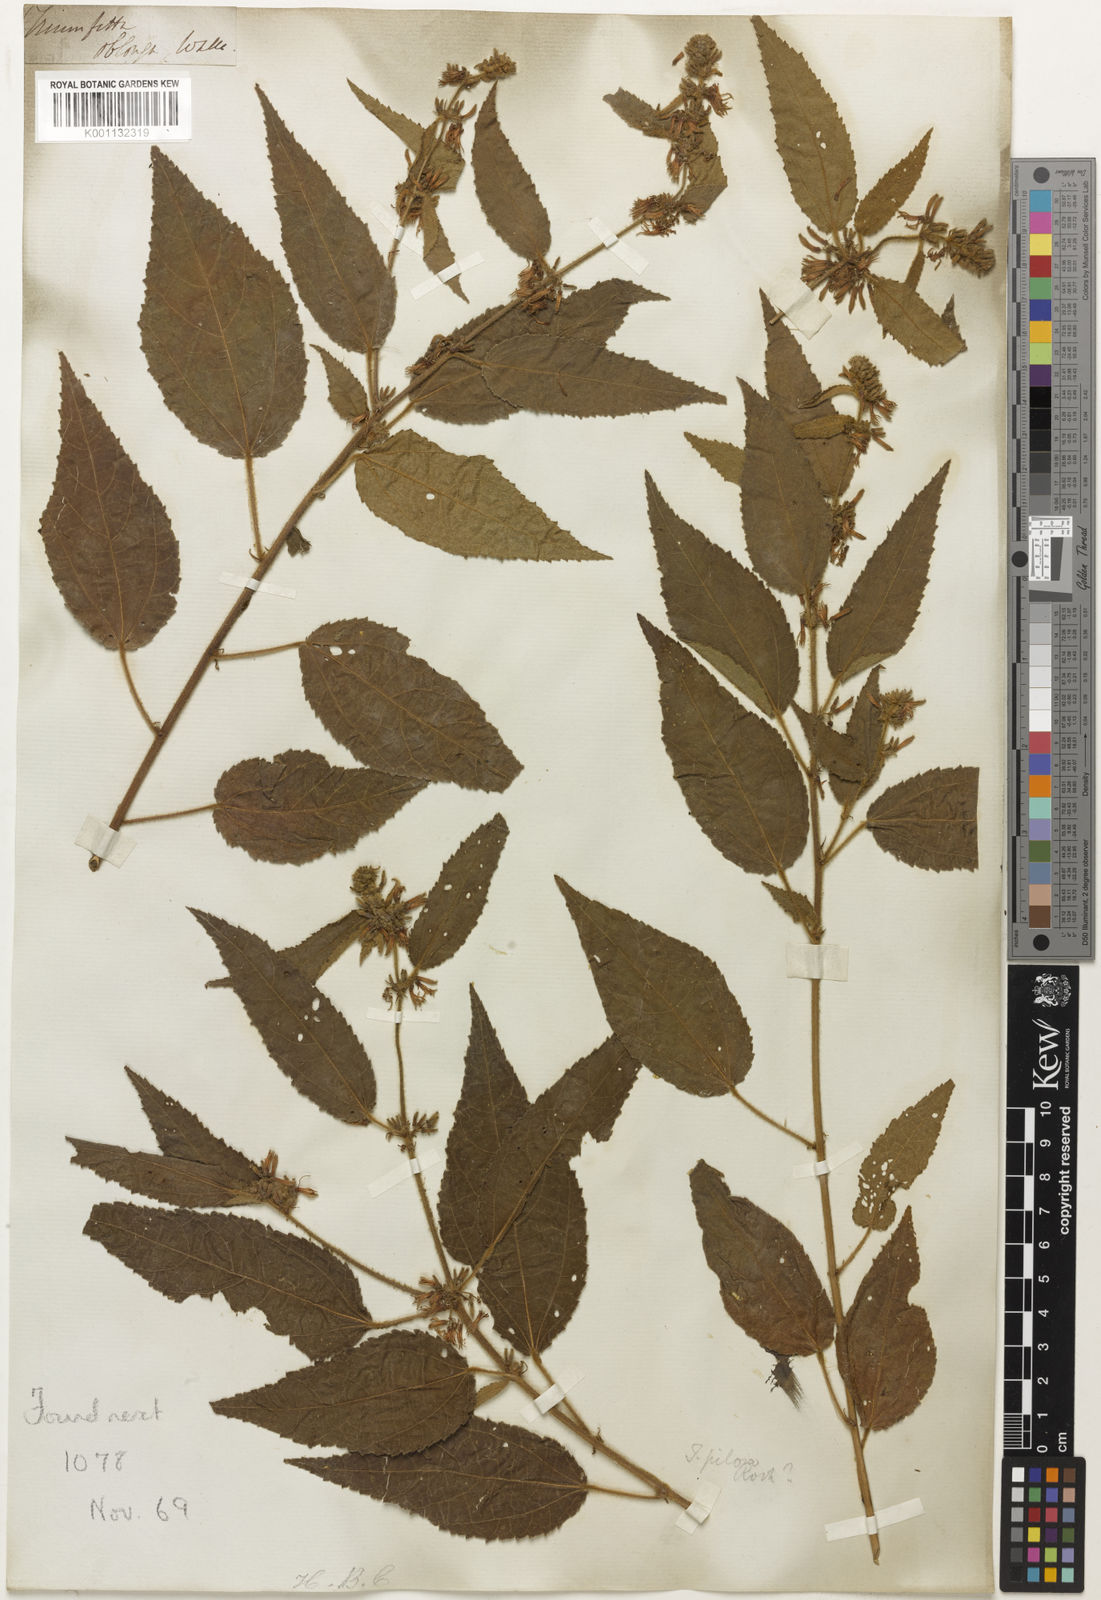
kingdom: Plantae
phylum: Tracheophyta
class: Magnoliopsida
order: Malvales
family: Malvaceae
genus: Triumfetta
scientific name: Triumfetta
